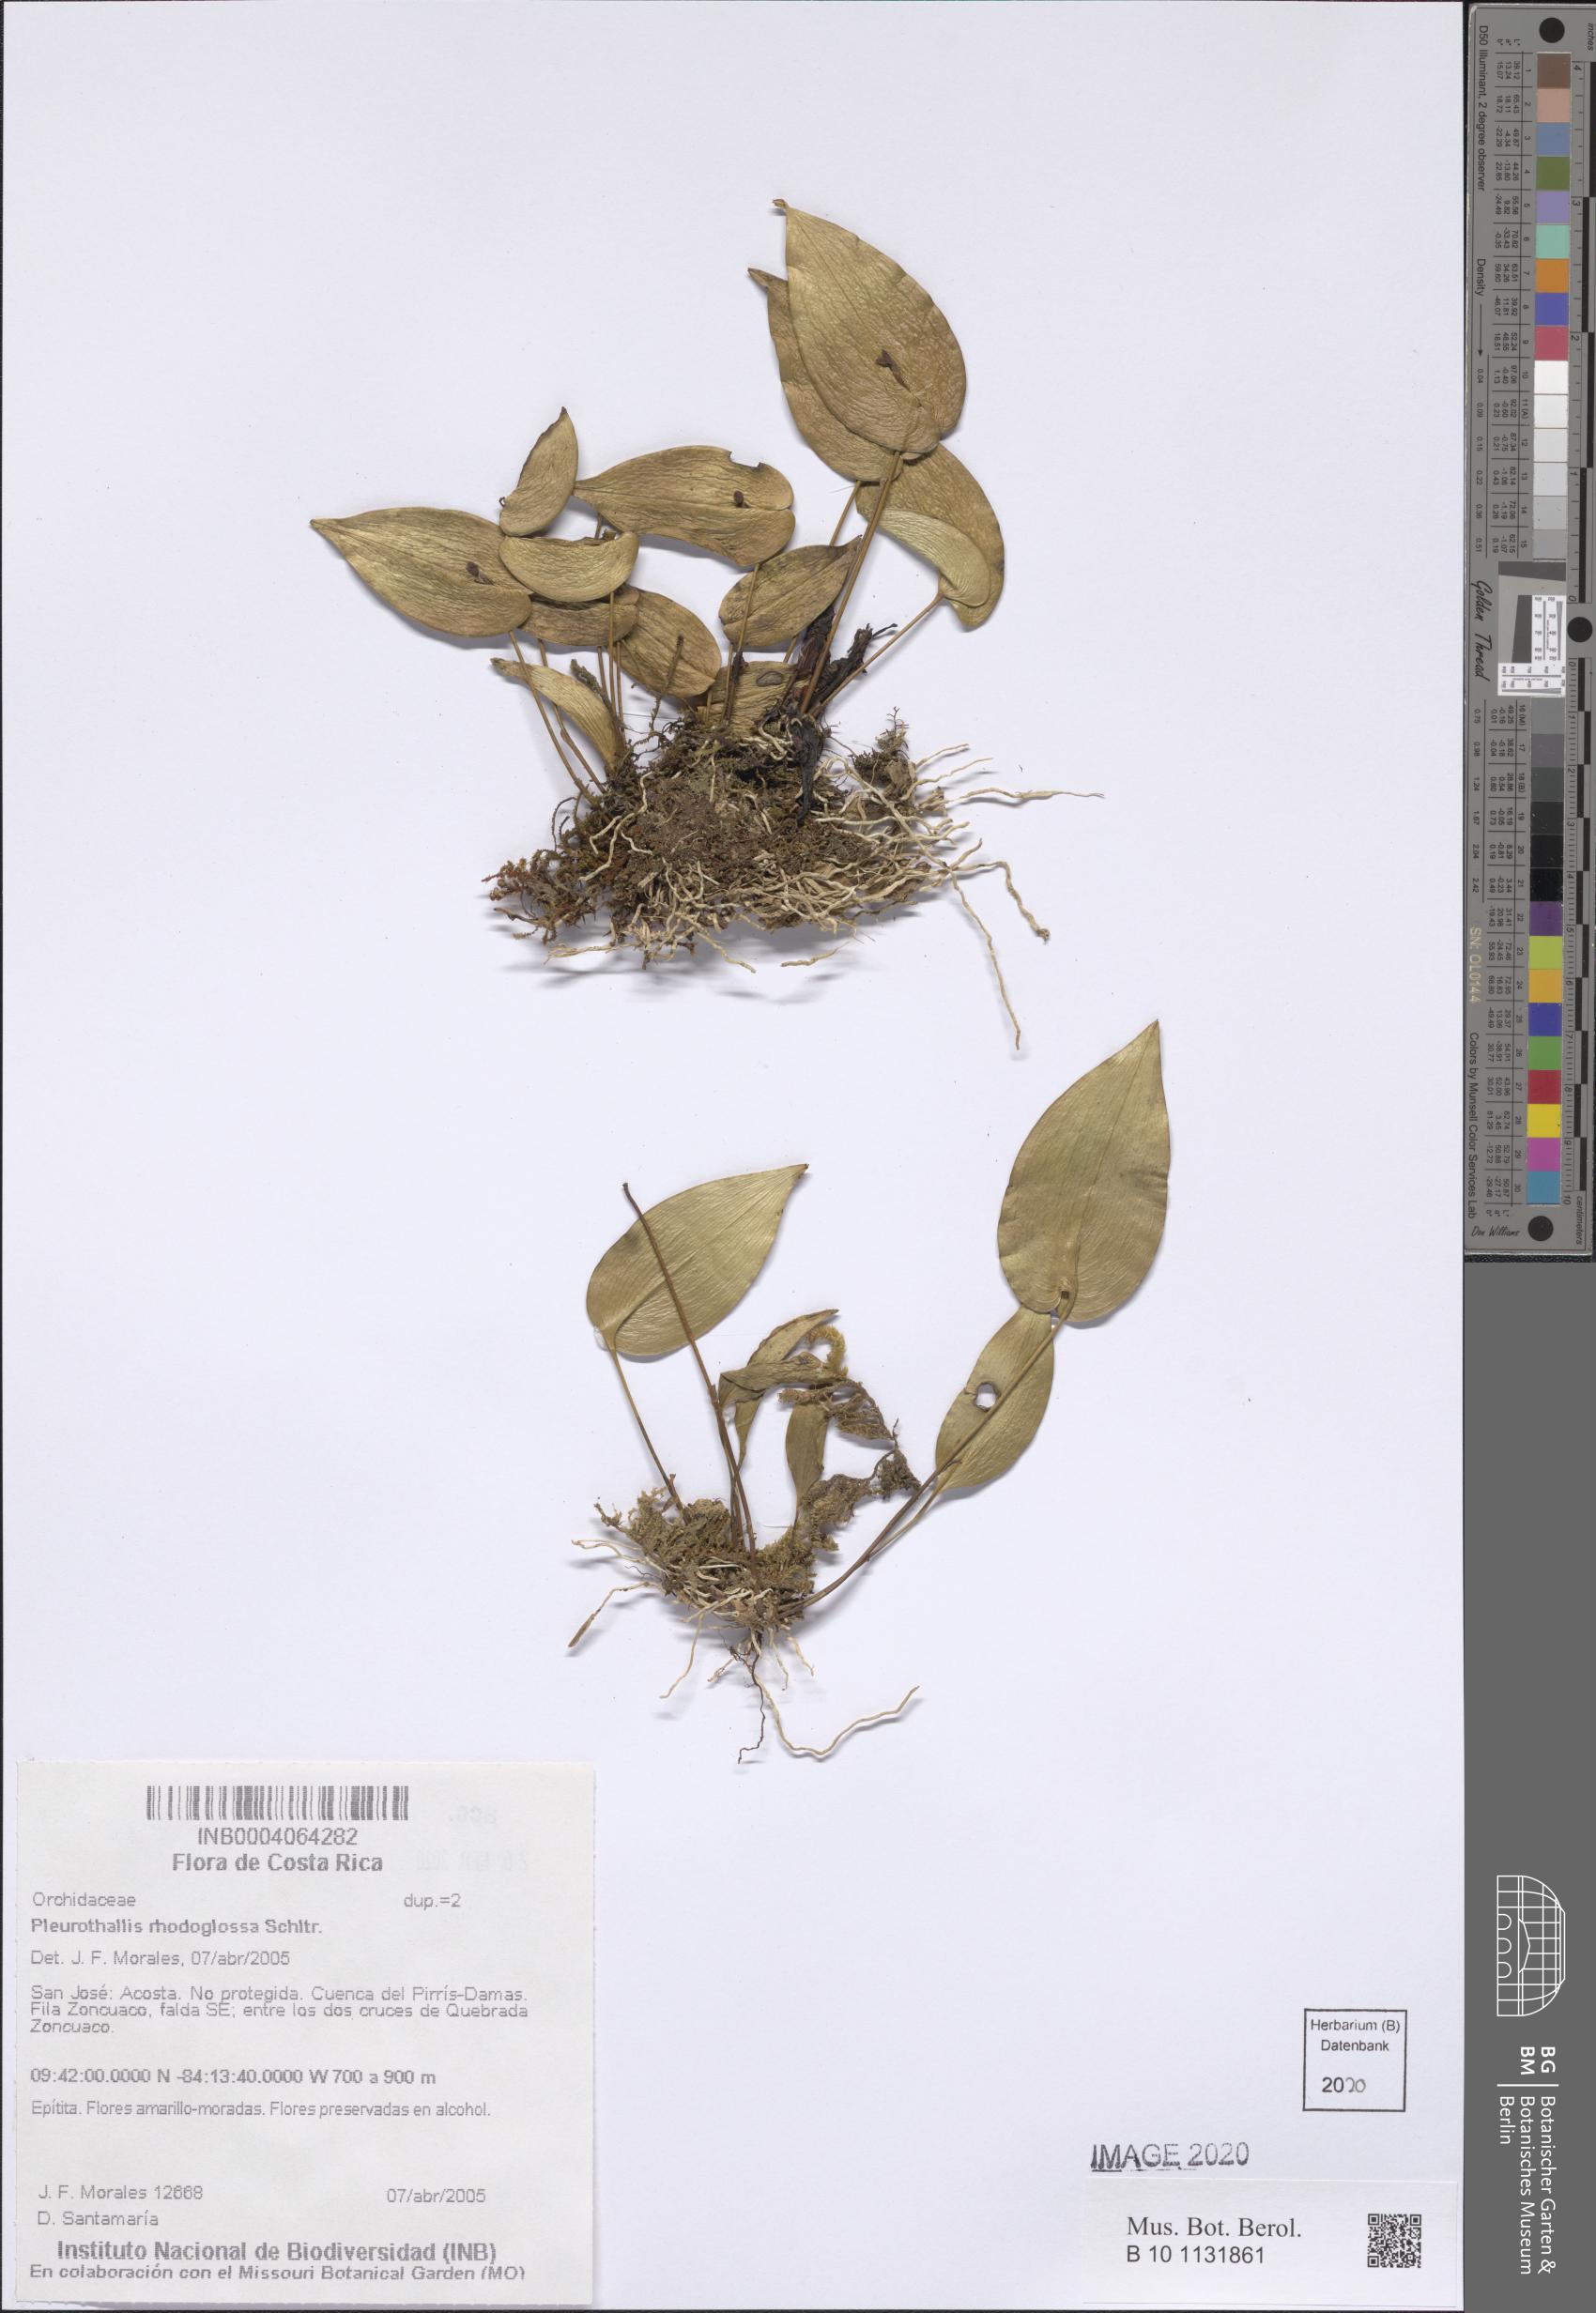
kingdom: Plantae
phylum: Tracheophyta
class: Liliopsida
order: Asparagales
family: Orchidaceae
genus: Pleurothallis
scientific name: Pleurothallis rhodoglossa
